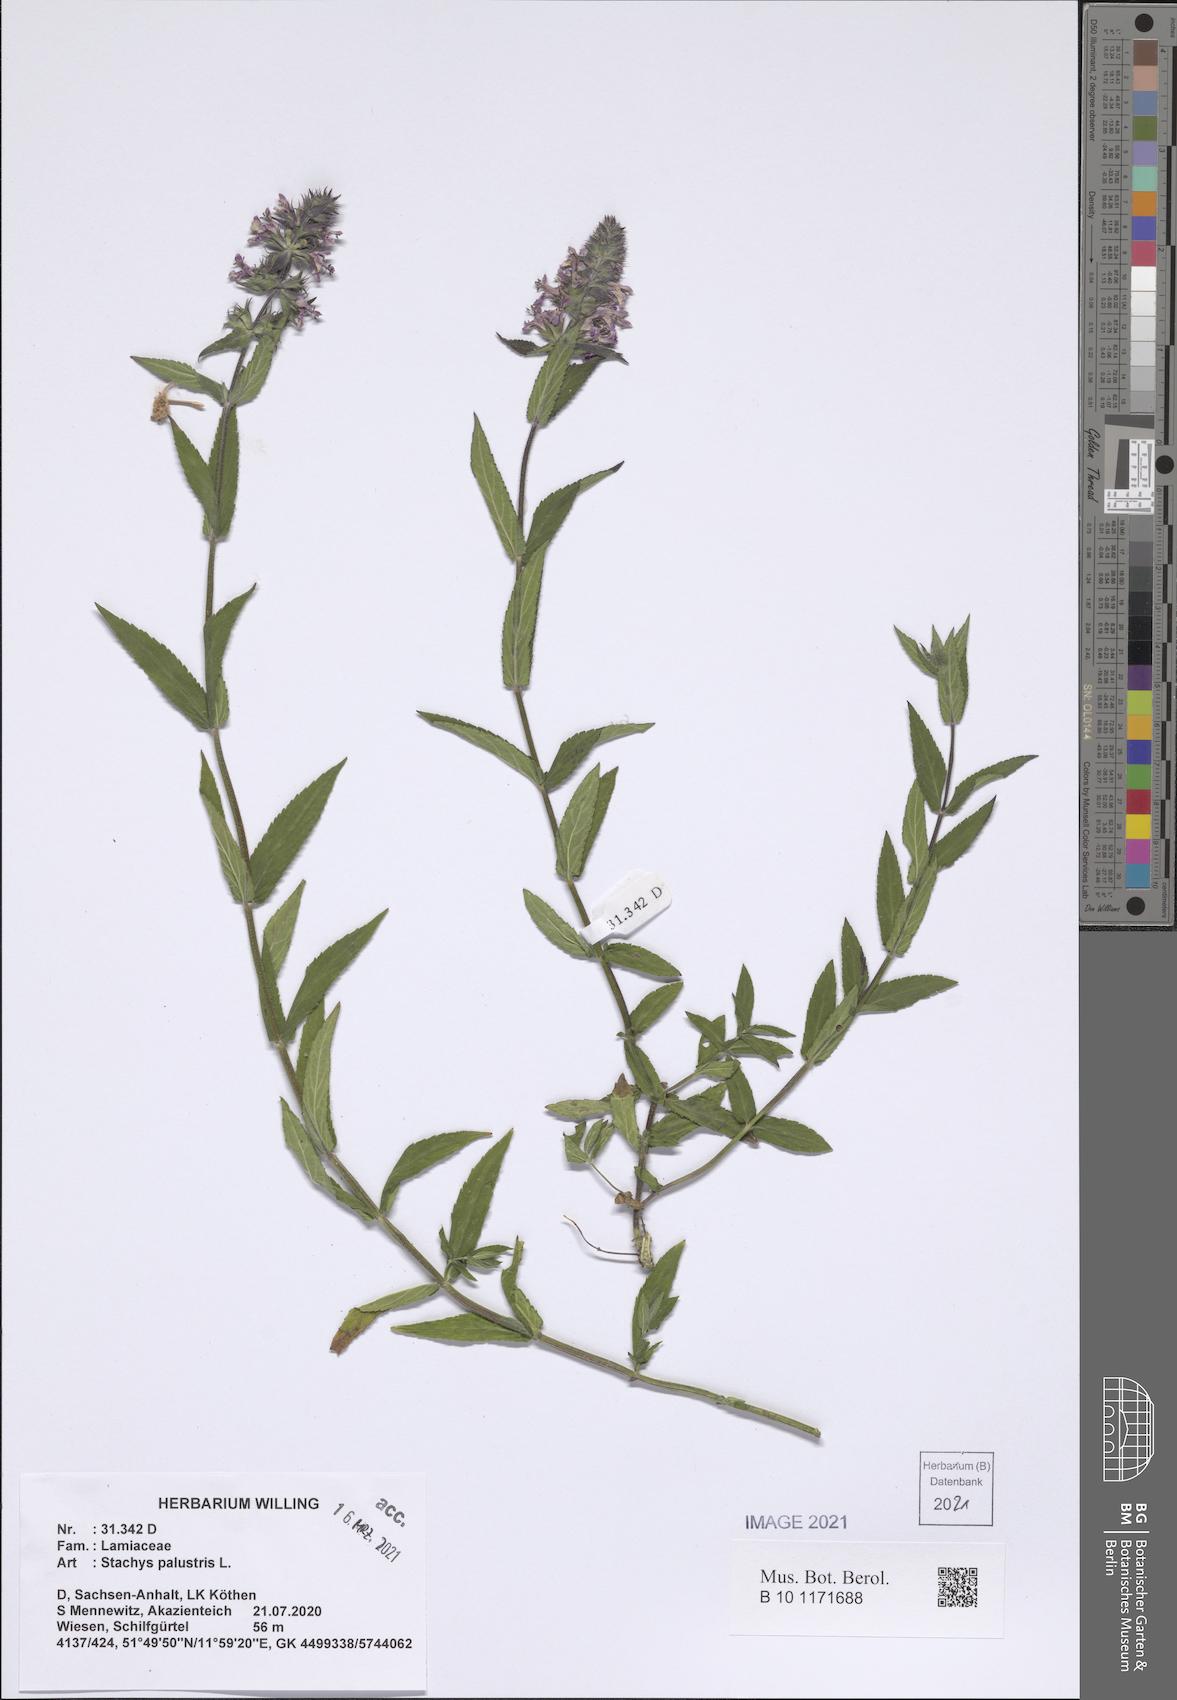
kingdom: Plantae
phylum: Tracheophyta
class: Magnoliopsida
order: Lamiales
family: Lamiaceae
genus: Stachys
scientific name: Stachys palustris
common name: Marsh woundwort
